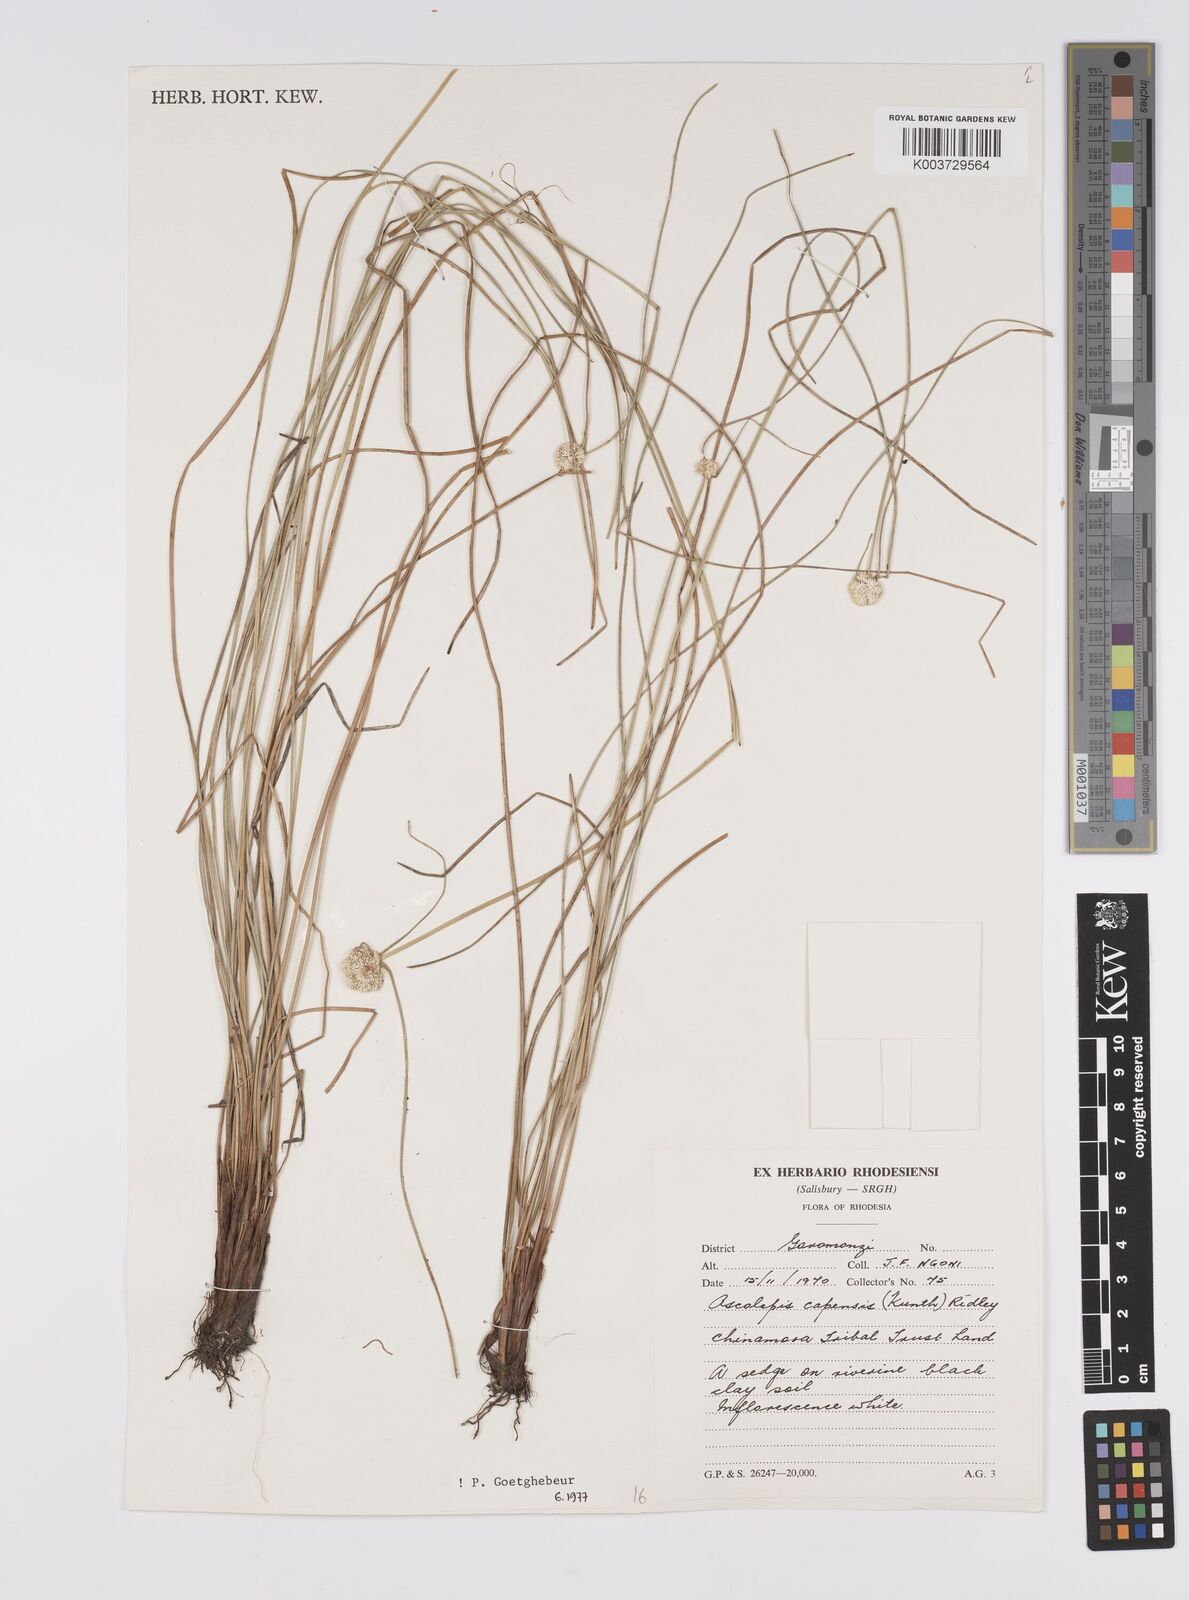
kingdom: Plantae
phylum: Tracheophyta
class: Liliopsida
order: Poales
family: Cyperaceae
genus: Cyperus
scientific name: Cyperus
